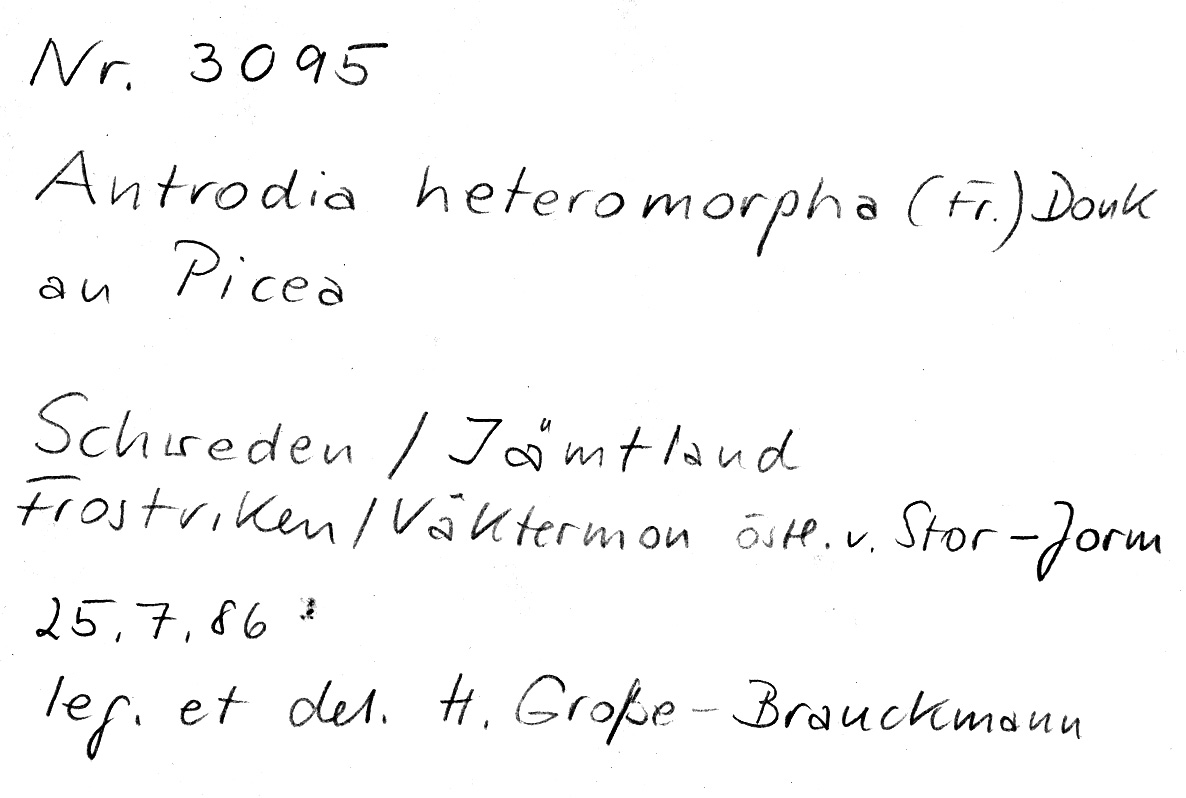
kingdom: Plantae
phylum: Tracheophyta
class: Pinopsida
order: Pinales
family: Pinaceae
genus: Picea
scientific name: Picea
